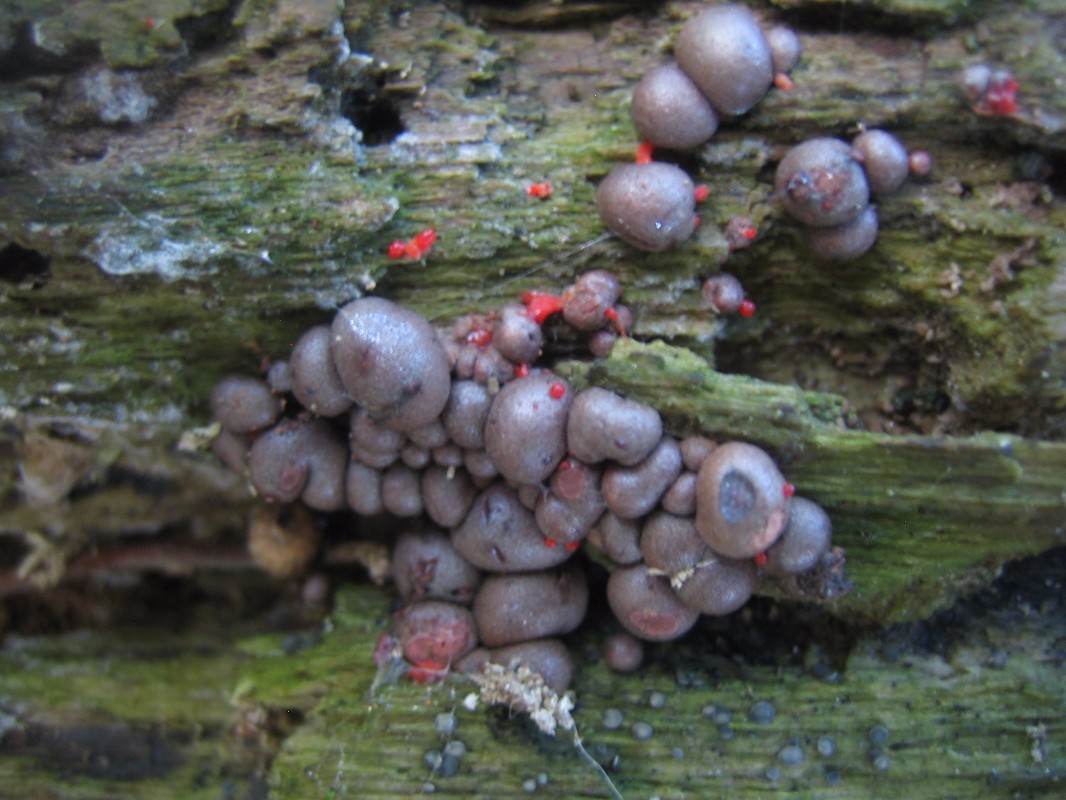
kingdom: Protozoa
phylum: Mycetozoa
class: Myxomycetes
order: Cribrariales
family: Tubiferaceae
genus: Lycogala
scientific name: Lycogala epidendrum
